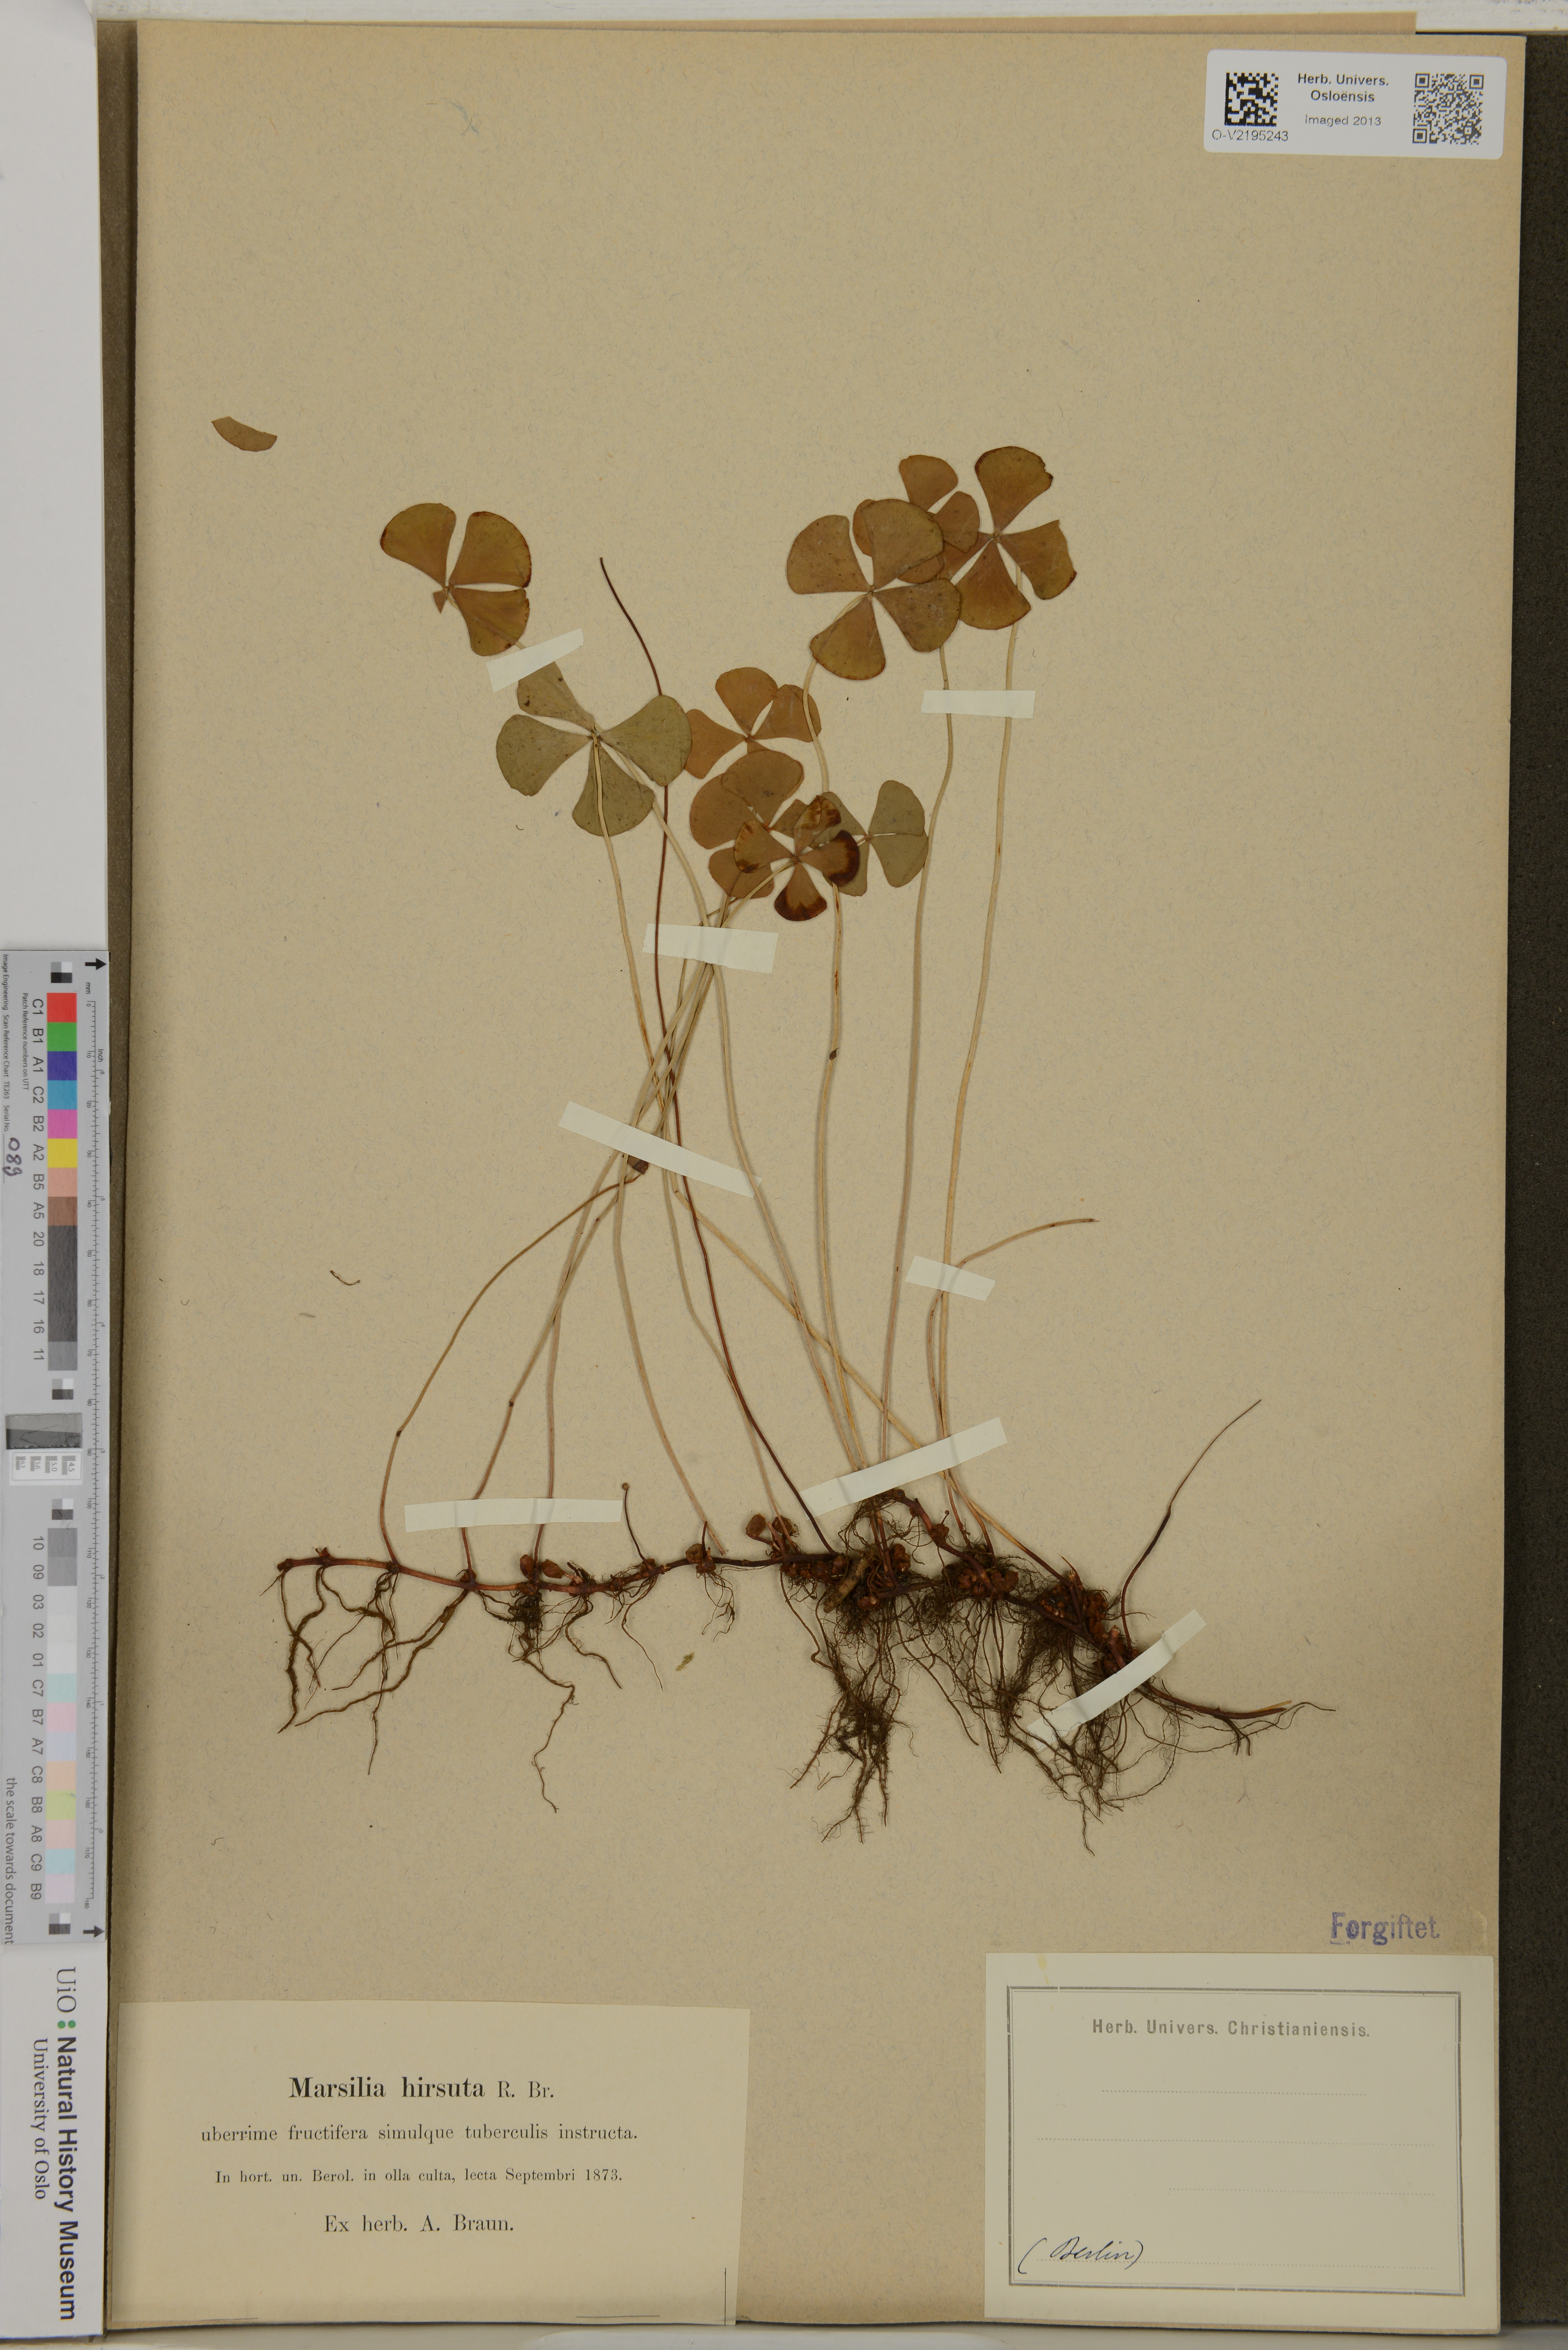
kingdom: Plantae
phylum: Tracheophyta
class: Polypodiopsida
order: Salviniales
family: Marsileaceae
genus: Marsilea
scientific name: Marsilea hirsuta
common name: Rough waterclover
